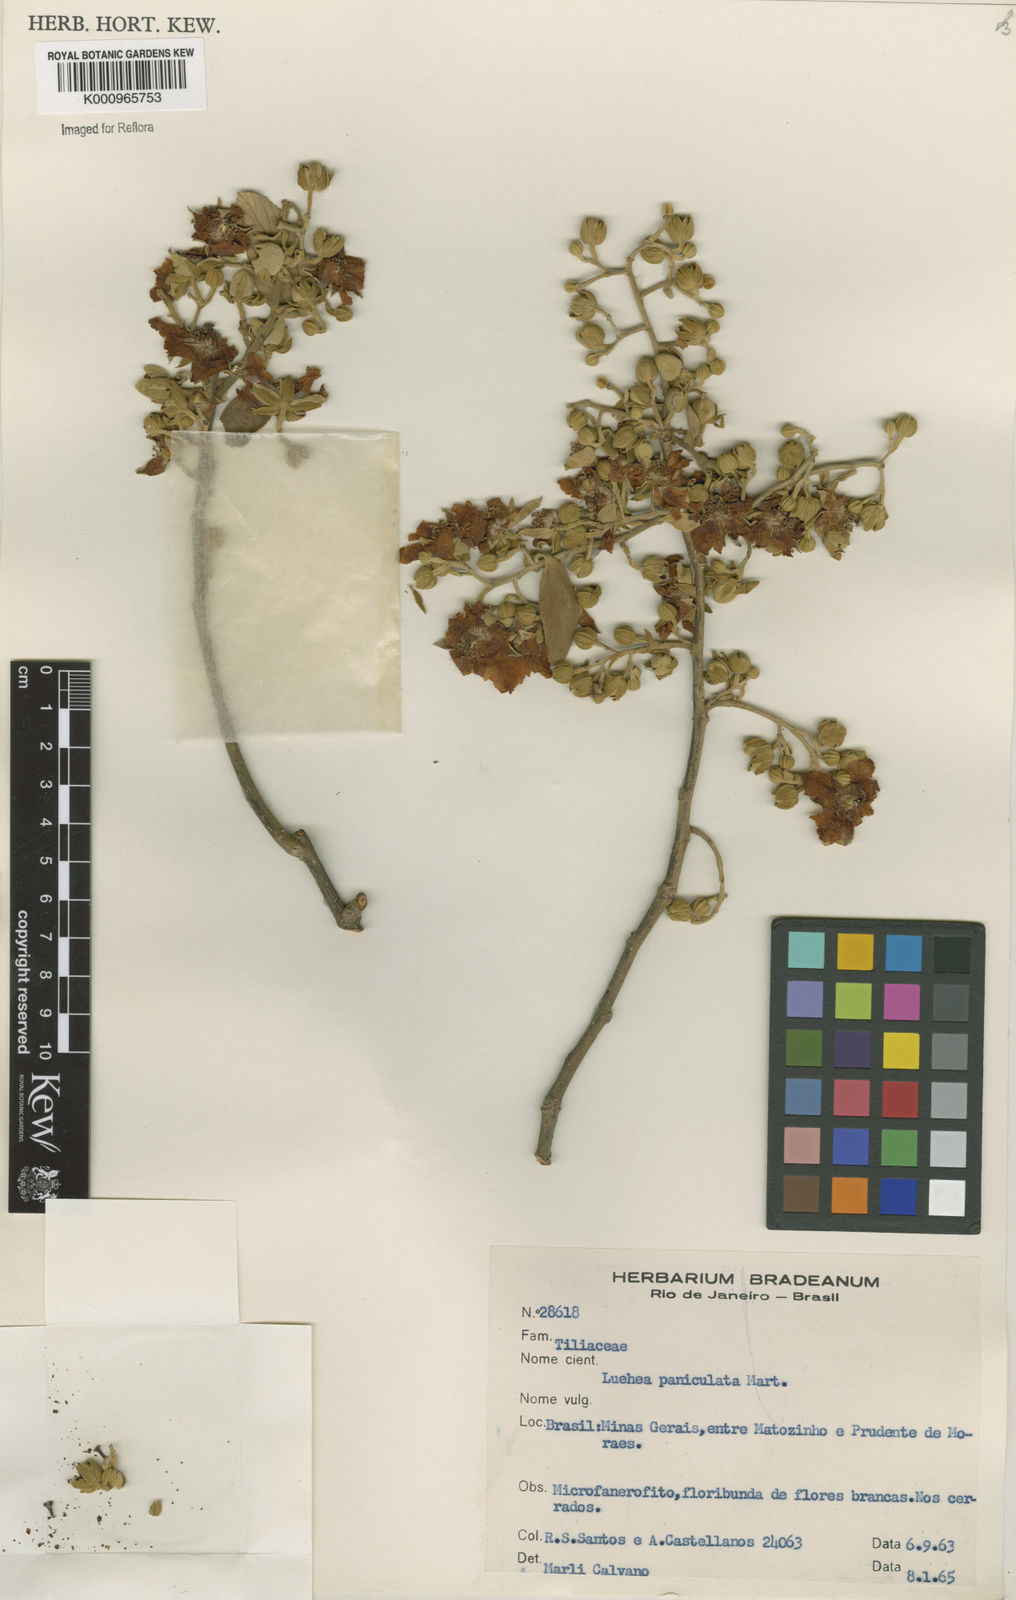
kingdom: Plantae
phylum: Tracheophyta
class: Magnoliopsida
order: Malvales
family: Malvaceae
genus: Luehea
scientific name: Luehea paniculata
